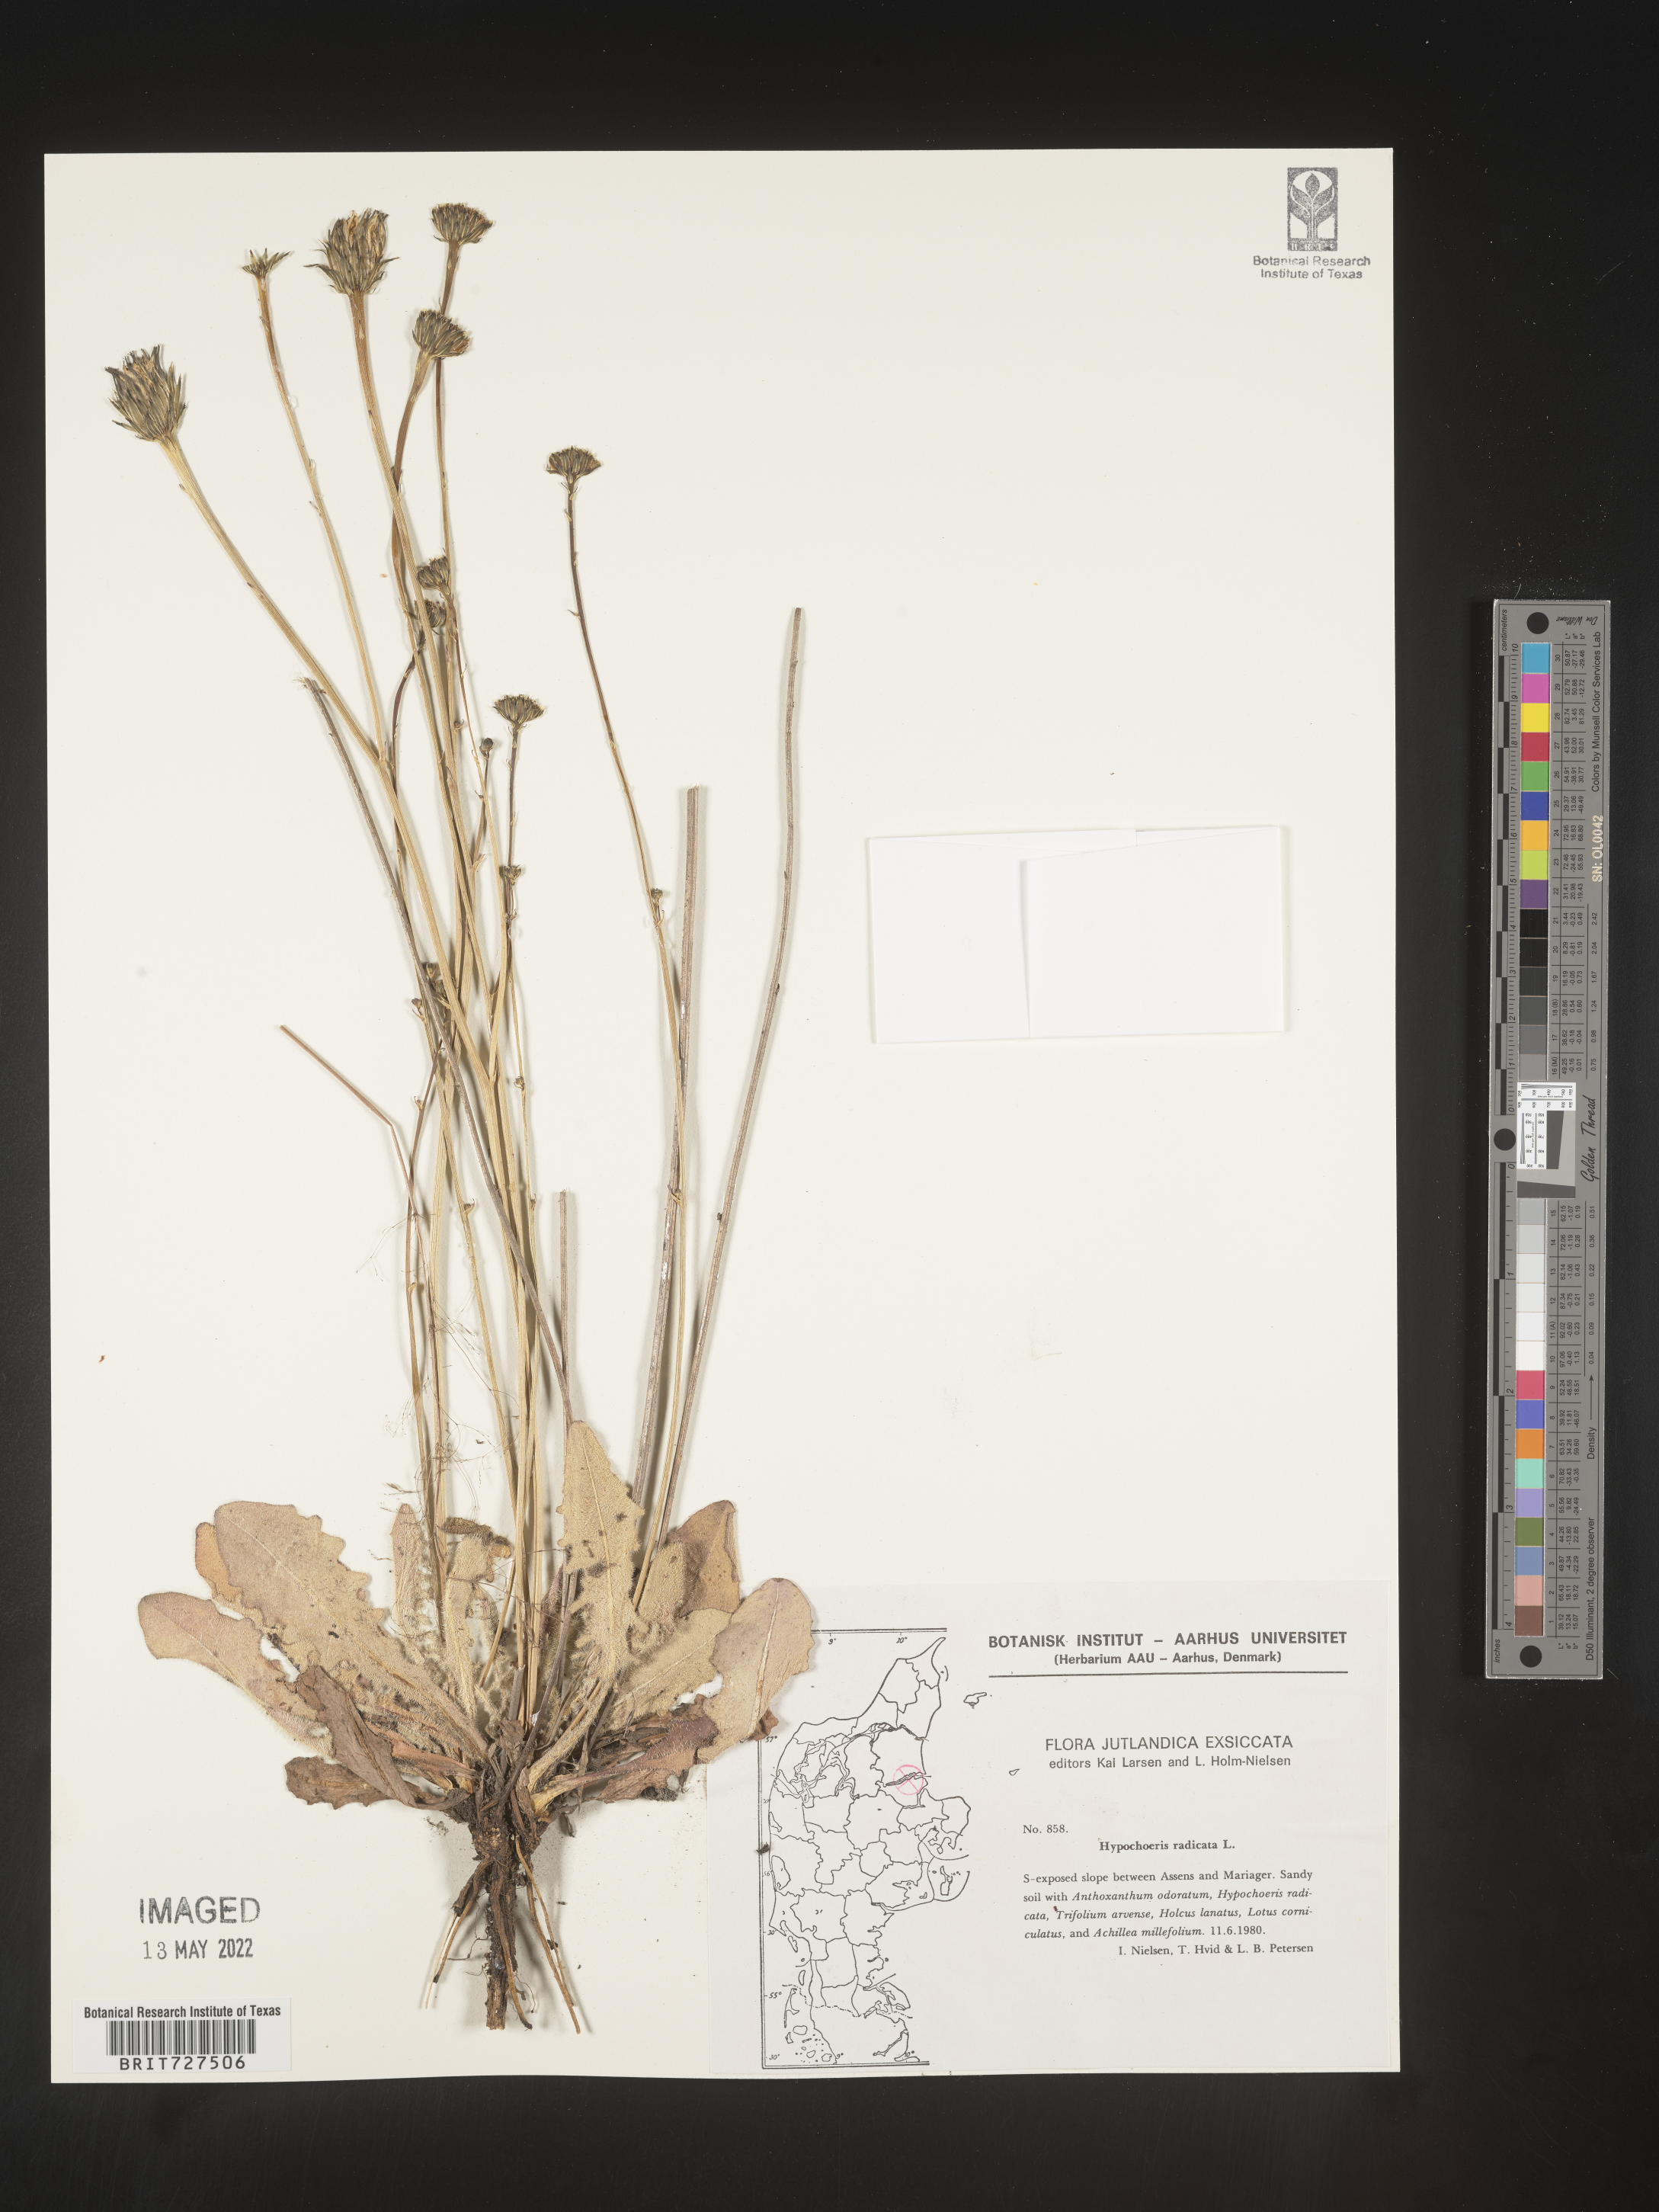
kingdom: Plantae
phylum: Tracheophyta
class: Magnoliopsida
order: Asterales
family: Asteraceae
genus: Hypochaeris
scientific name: Hypochaeris
